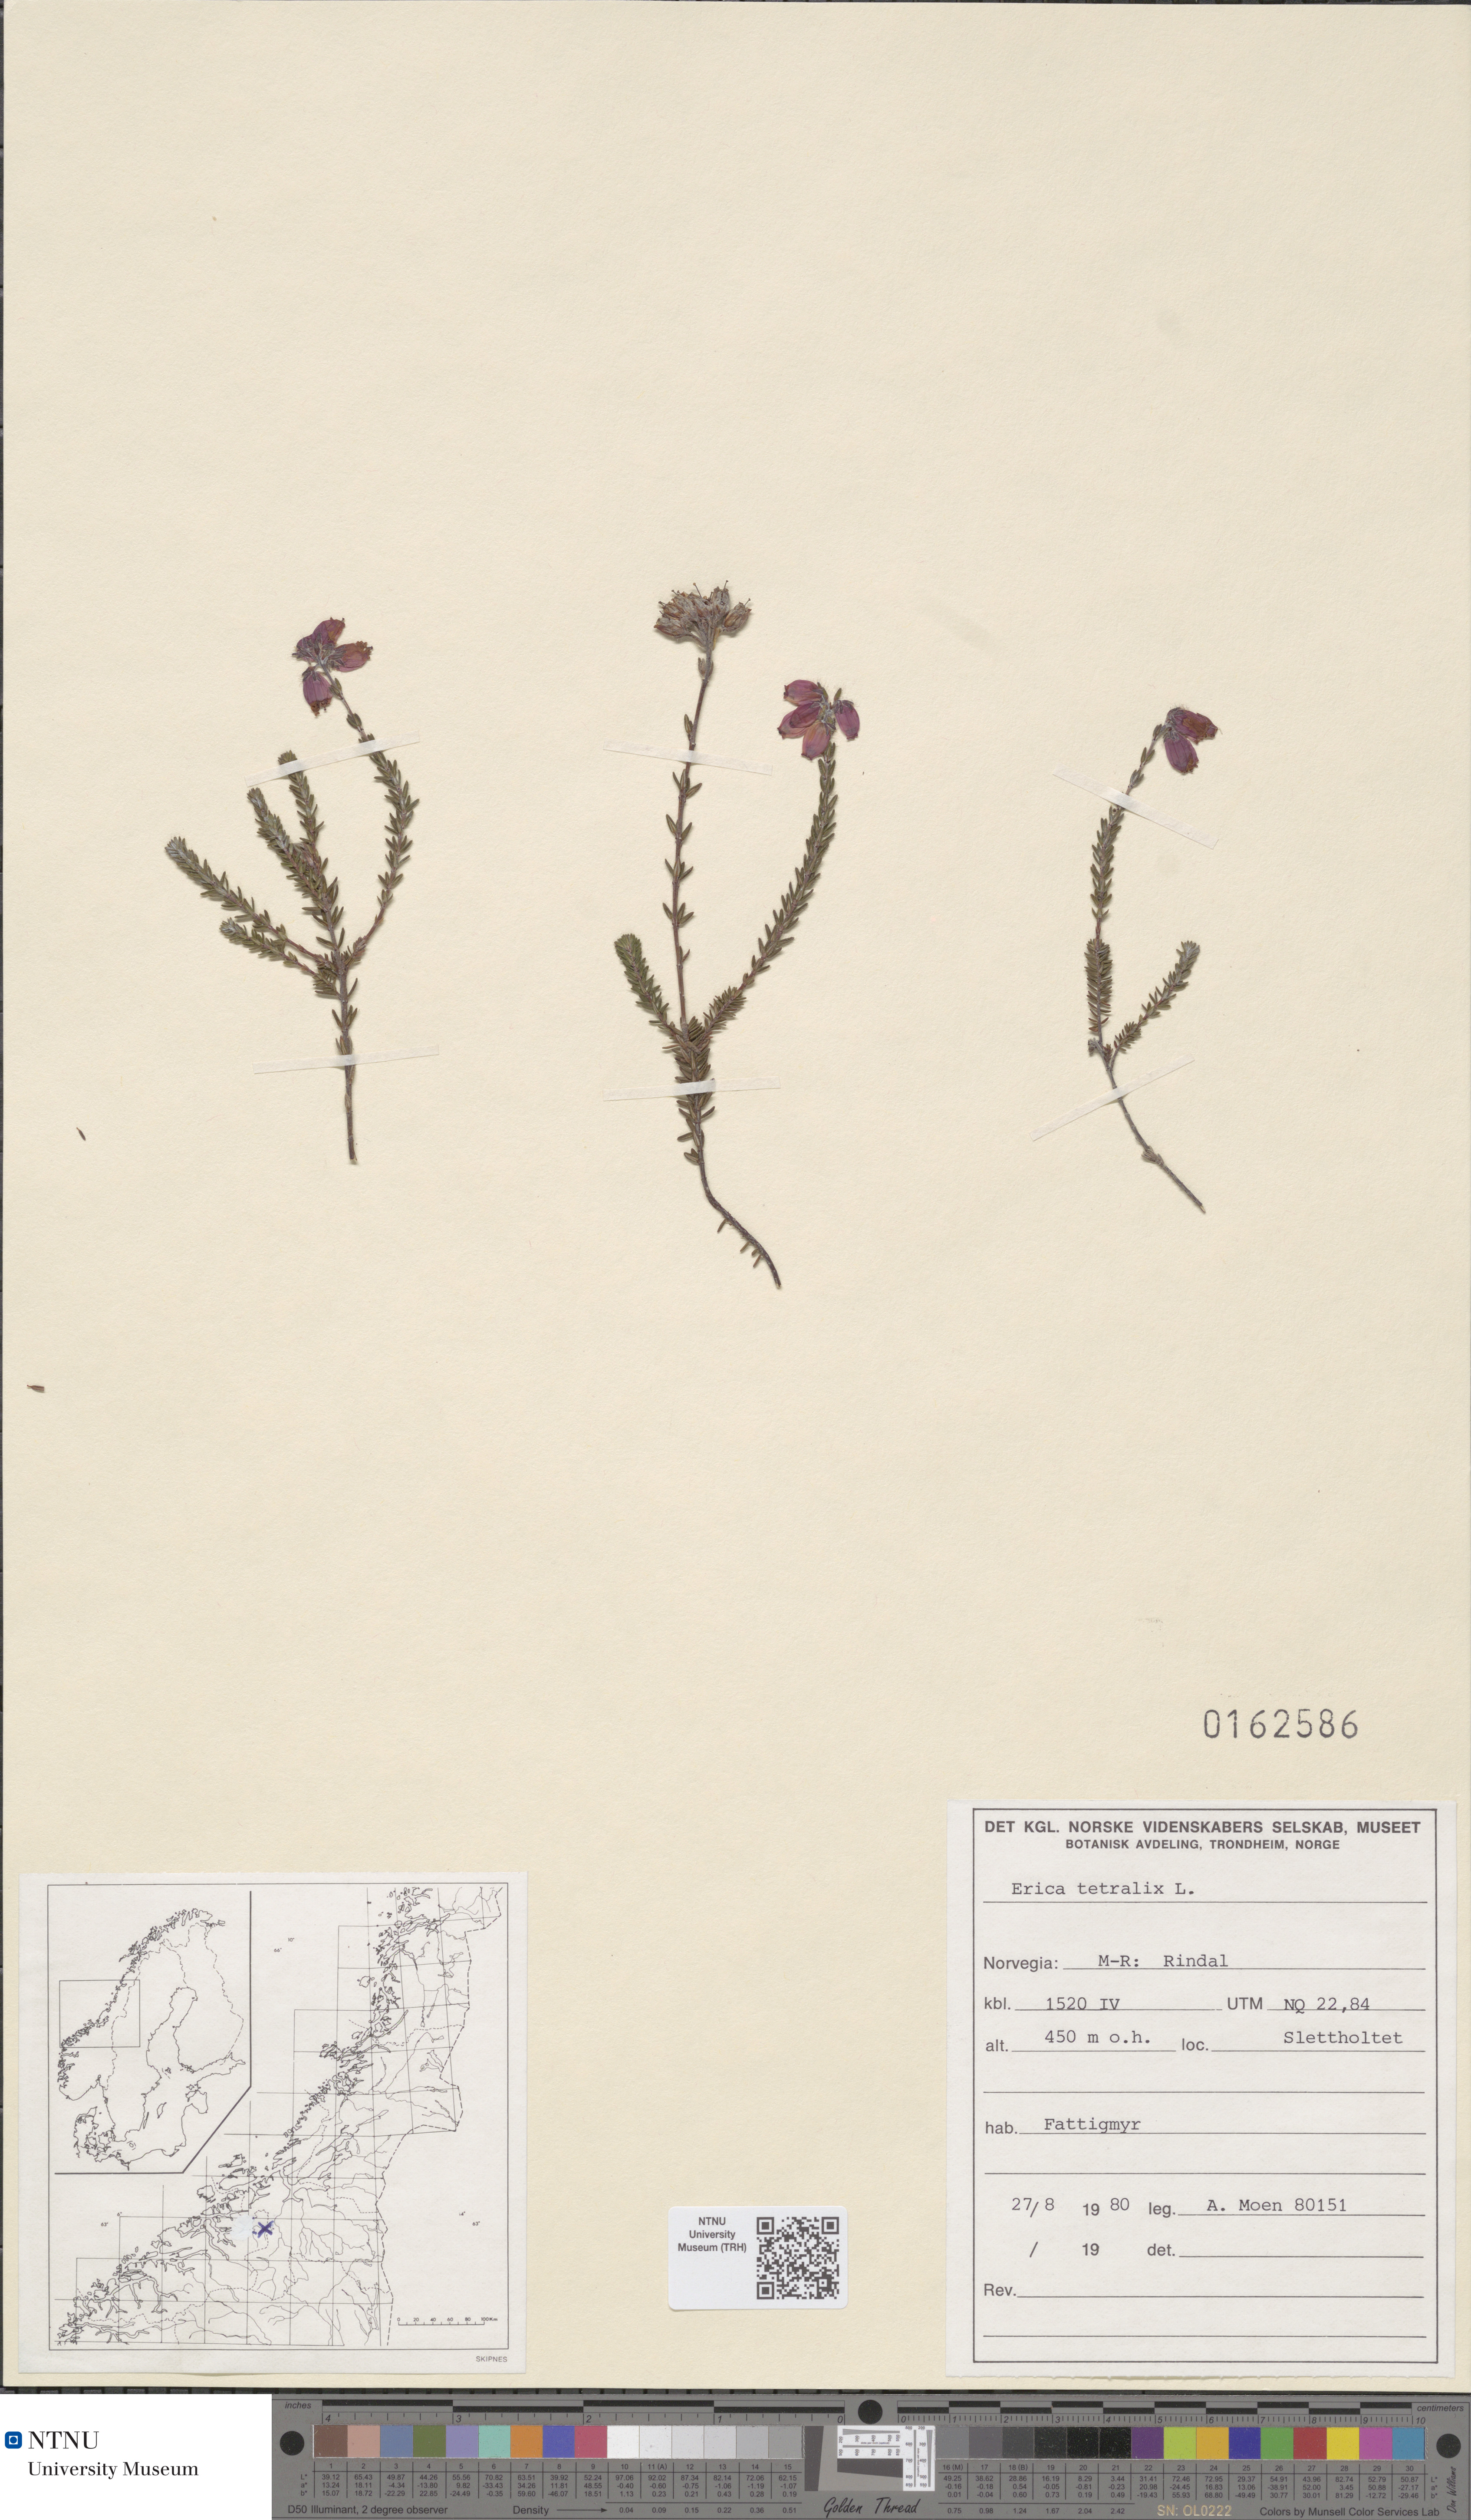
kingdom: Plantae
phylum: Tracheophyta
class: Magnoliopsida
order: Ericales
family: Ericaceae
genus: Erica
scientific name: Erica tetralix
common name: Cross-leaved heath
